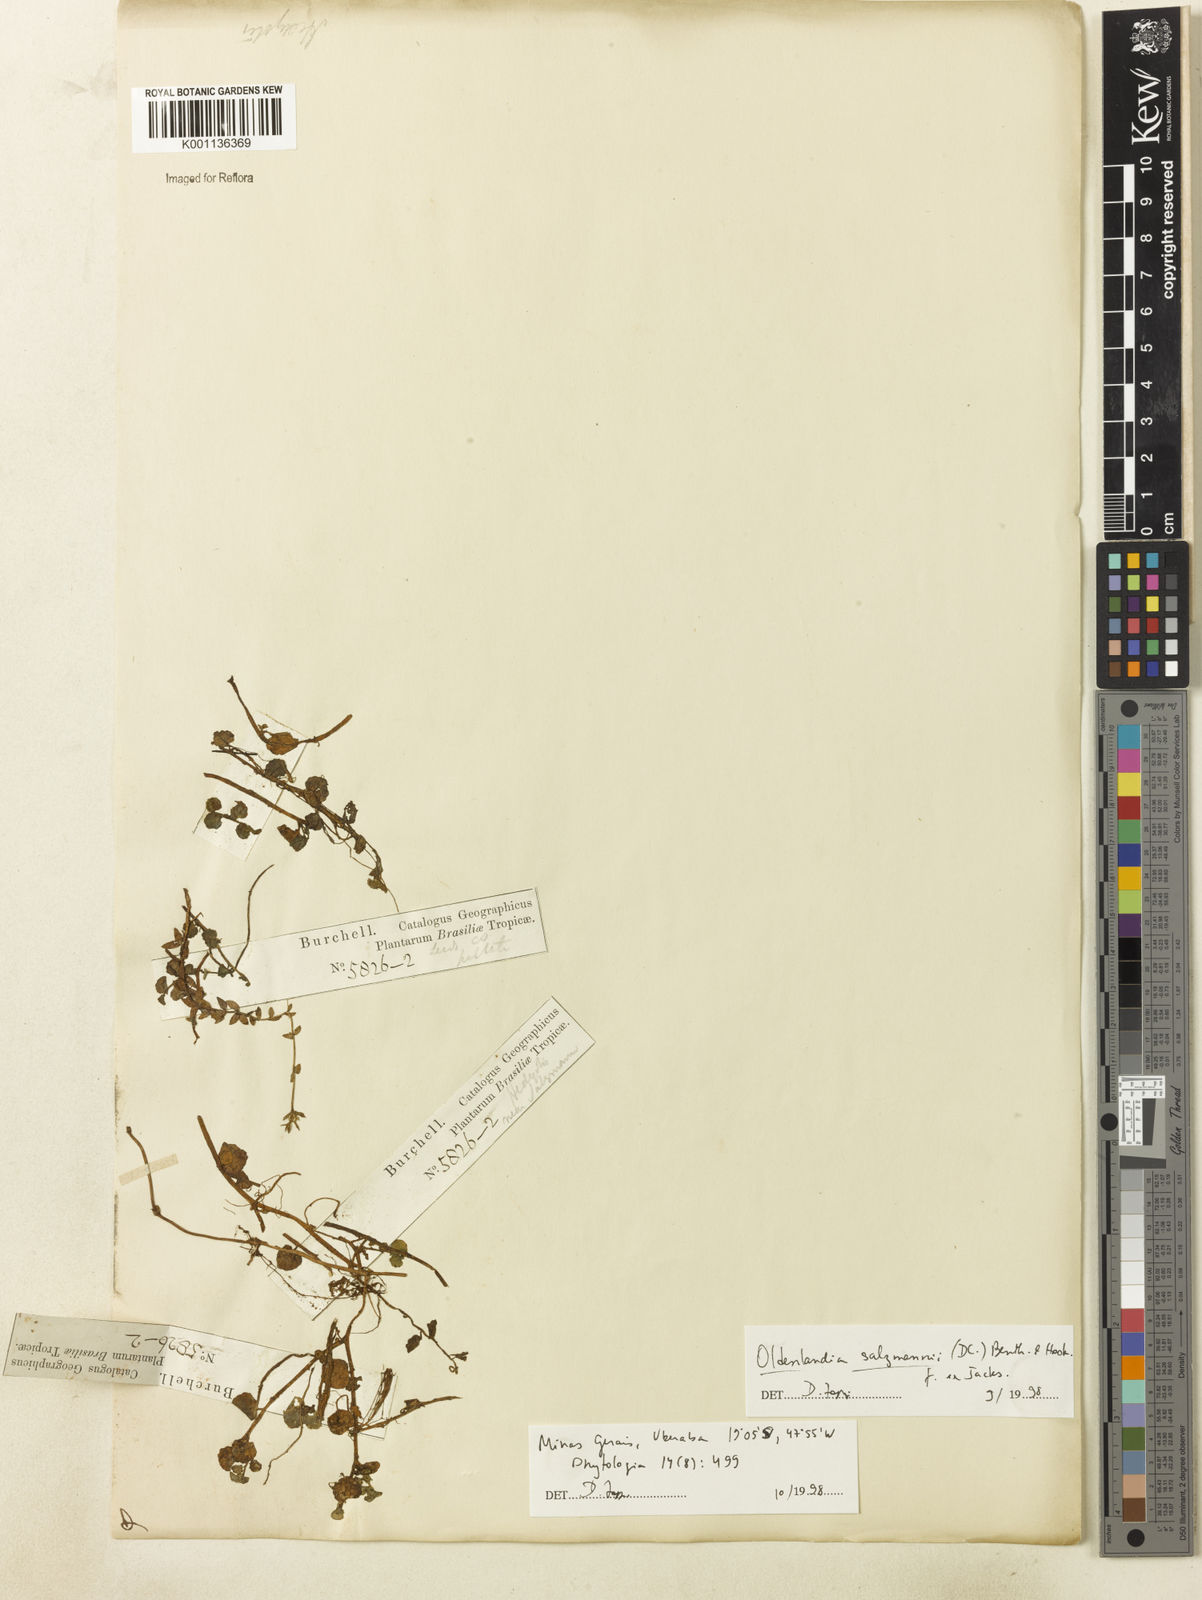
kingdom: Plantae
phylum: Tracheophyta
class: Magnoliopsida
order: Gentianales
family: Rubiaceae
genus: Oldenlandia
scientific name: Oldenlandia salzmannii
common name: Salzmann's mille graines
